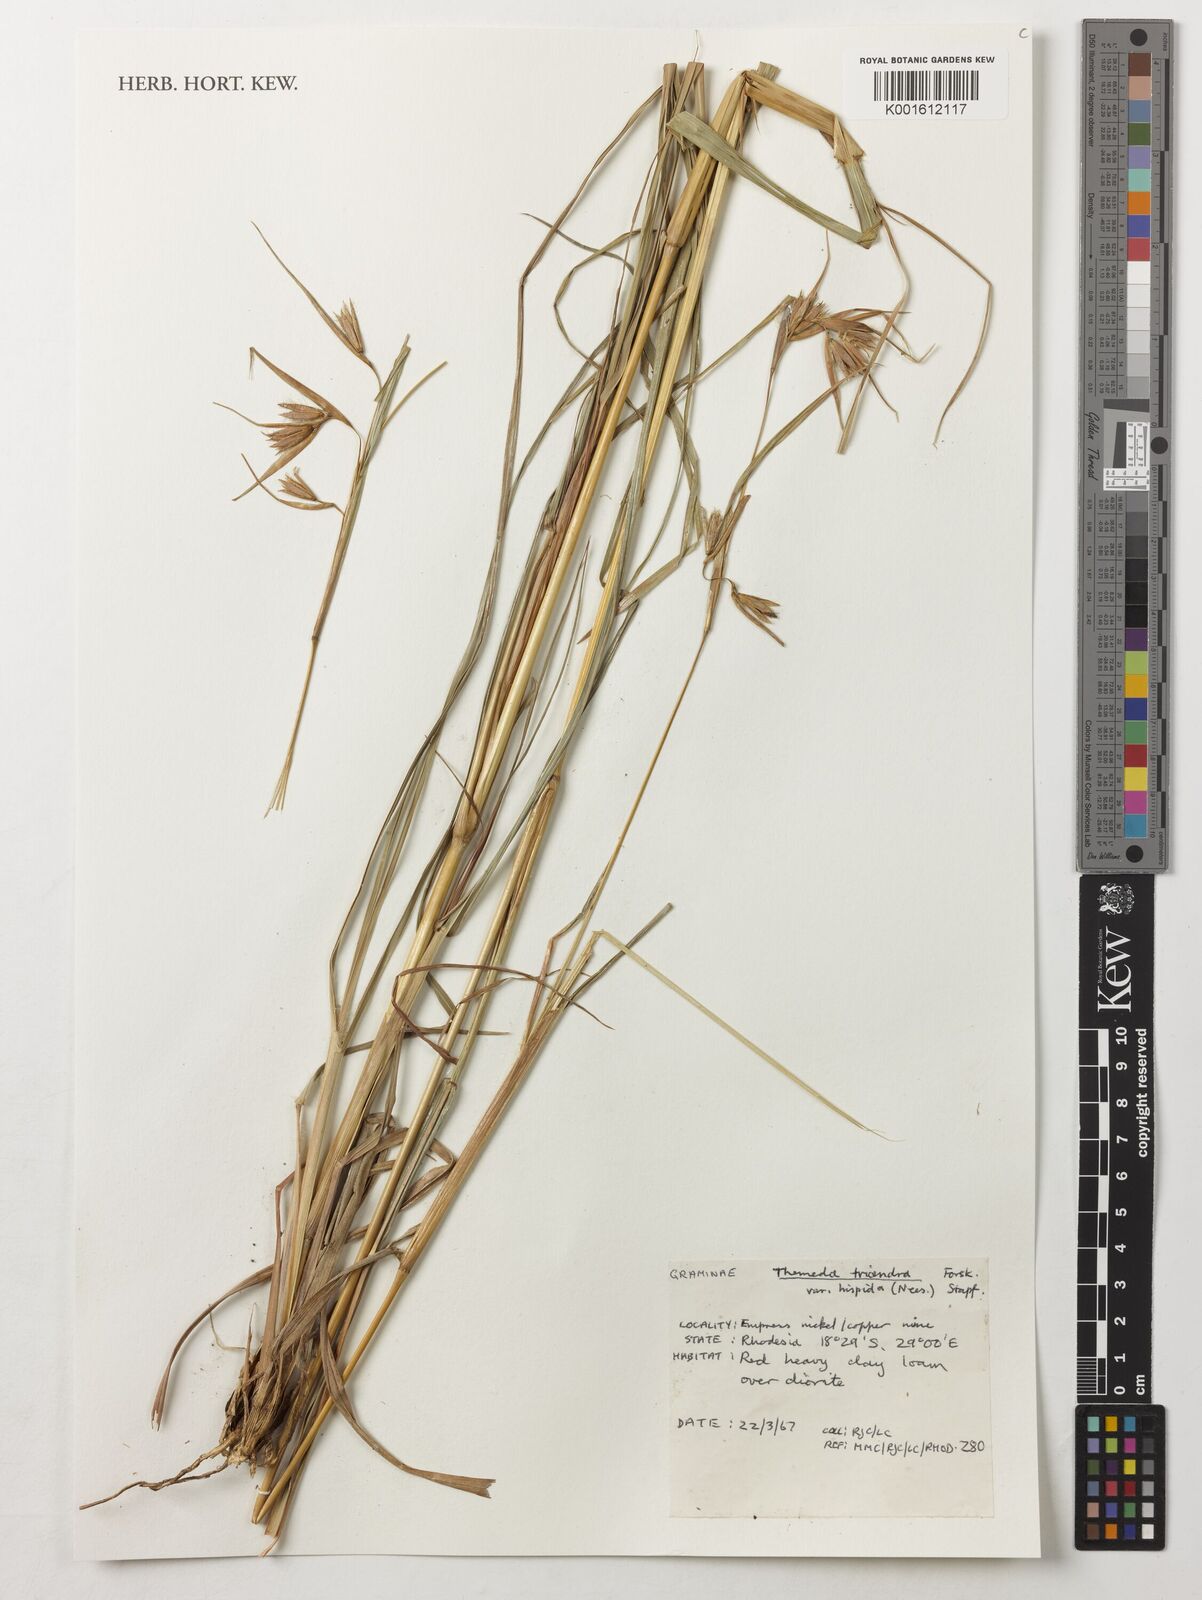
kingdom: Plantae
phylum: Tracheophyta
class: Liliopsida
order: Poales
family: Poaceae
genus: Themeda
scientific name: Themeda triandra
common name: Kangaroo grass
